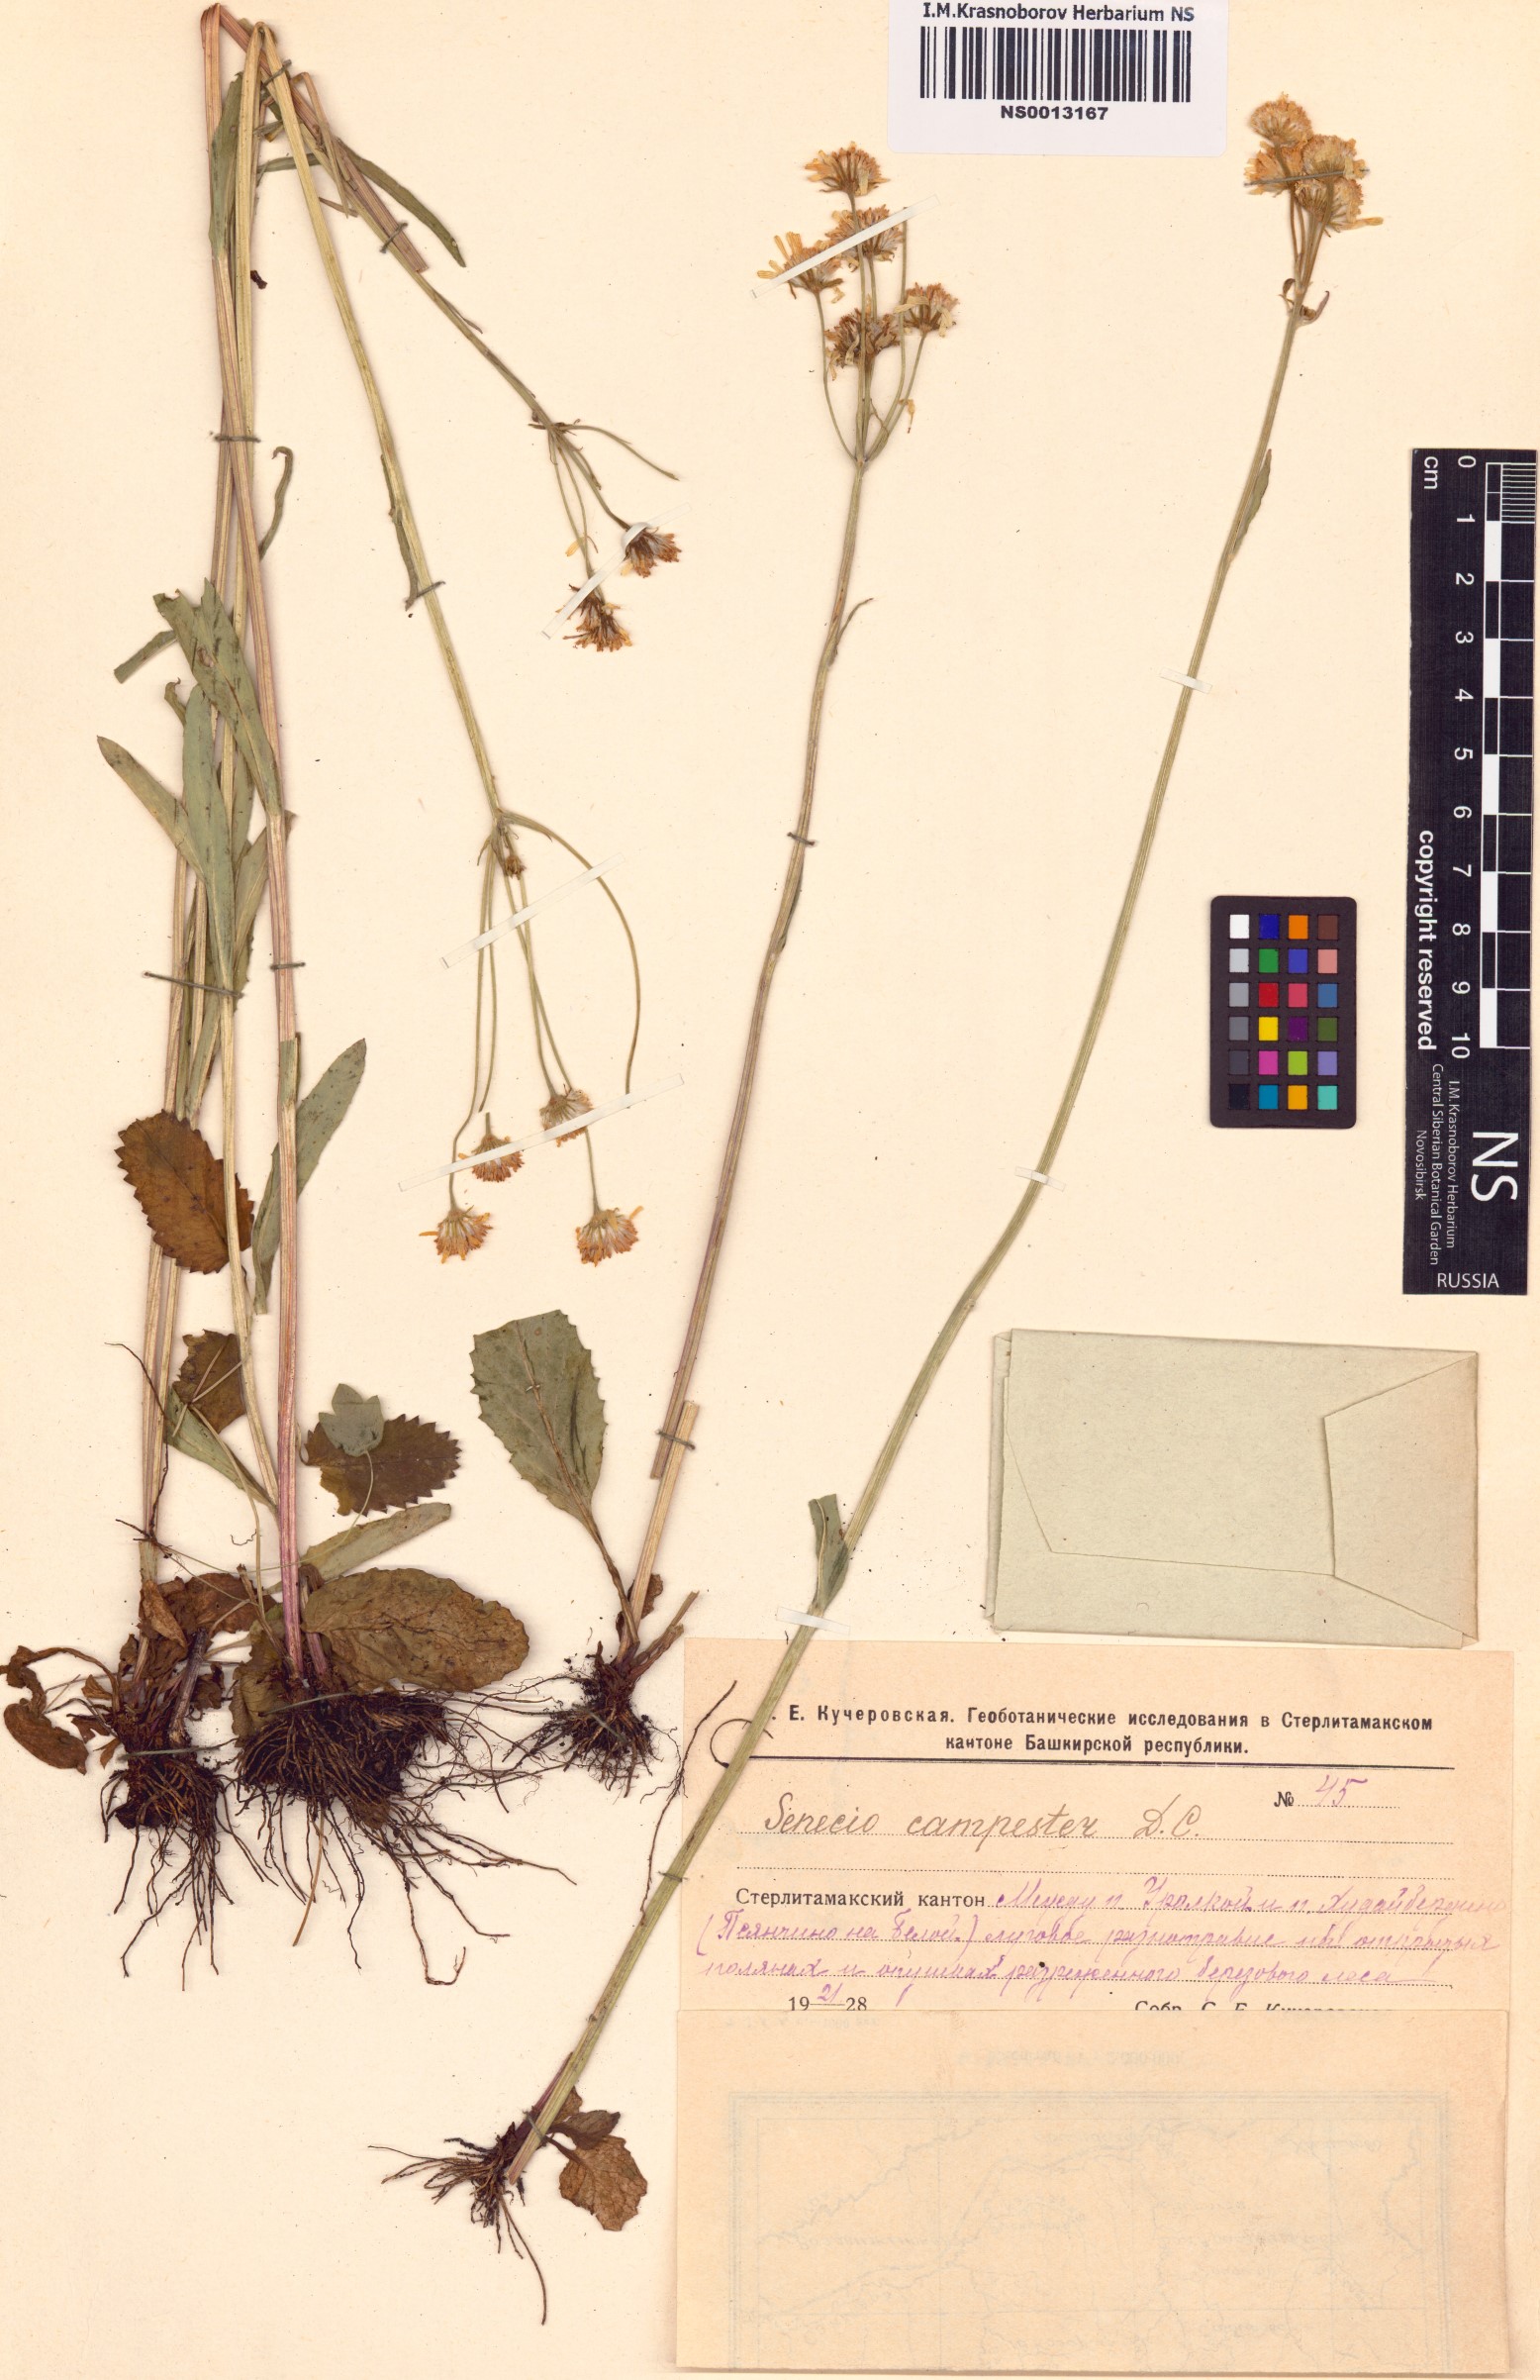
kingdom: Plantae
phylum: Tracheophyta
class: Magnoliopsida
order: Asterales
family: Asteraceae
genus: Tephroseris
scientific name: Tephroseris integrifolia
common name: Field fleawort
